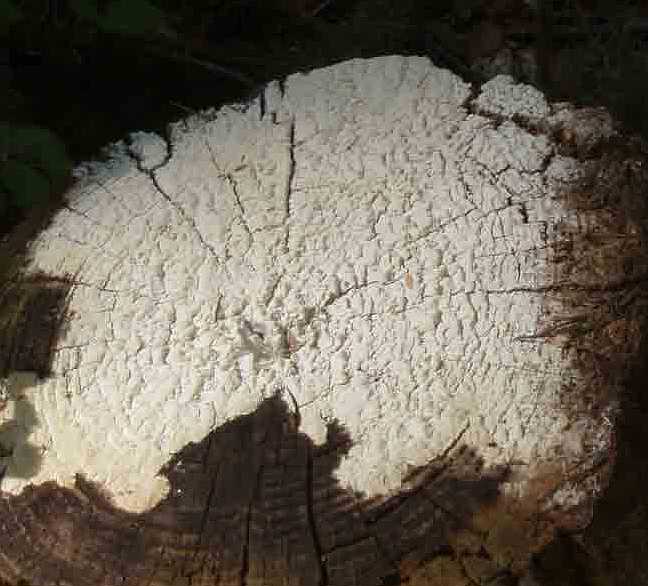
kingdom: Fungi
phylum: Basidiomycota
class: Agaricomycetes
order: Polyporales
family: Fomitopsidaceae
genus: Daedalea
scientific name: Daedalea xantha
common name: gul sejporesvamp
